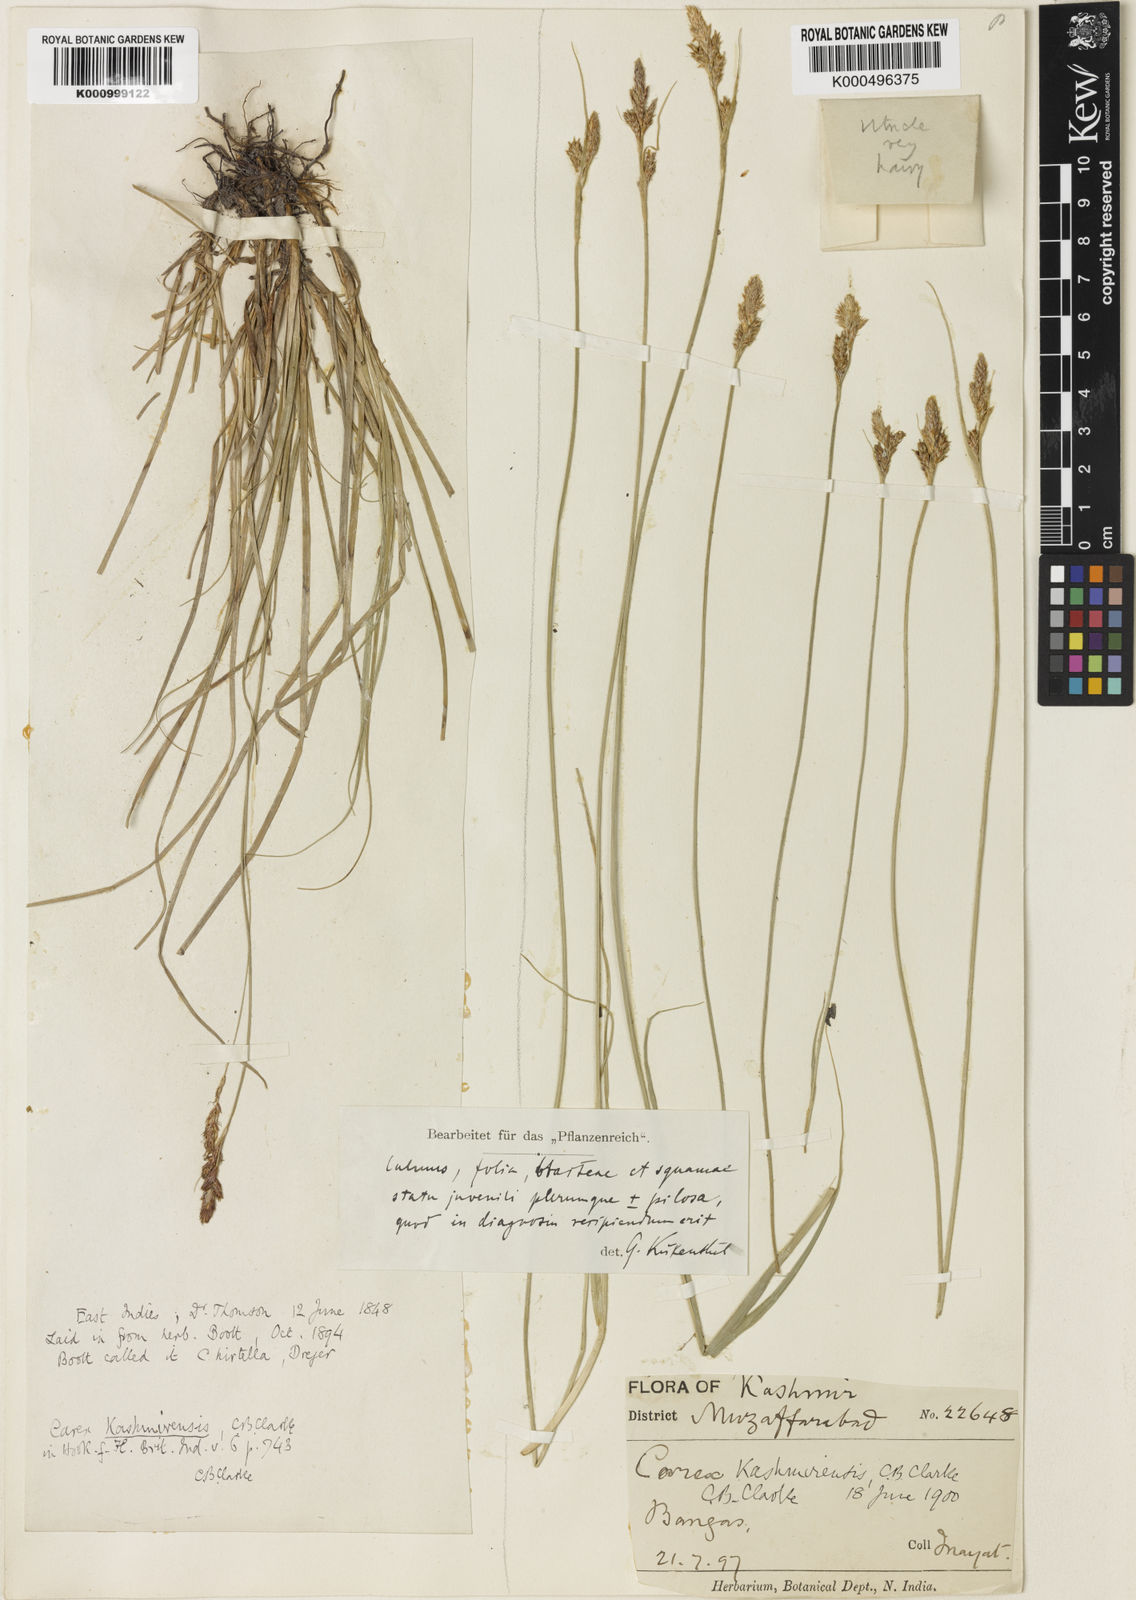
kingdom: Plantae
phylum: Tracheophyta
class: Liliopsida
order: Poales
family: Cyperaceae
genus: Carex
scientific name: Carex kashmirensis
